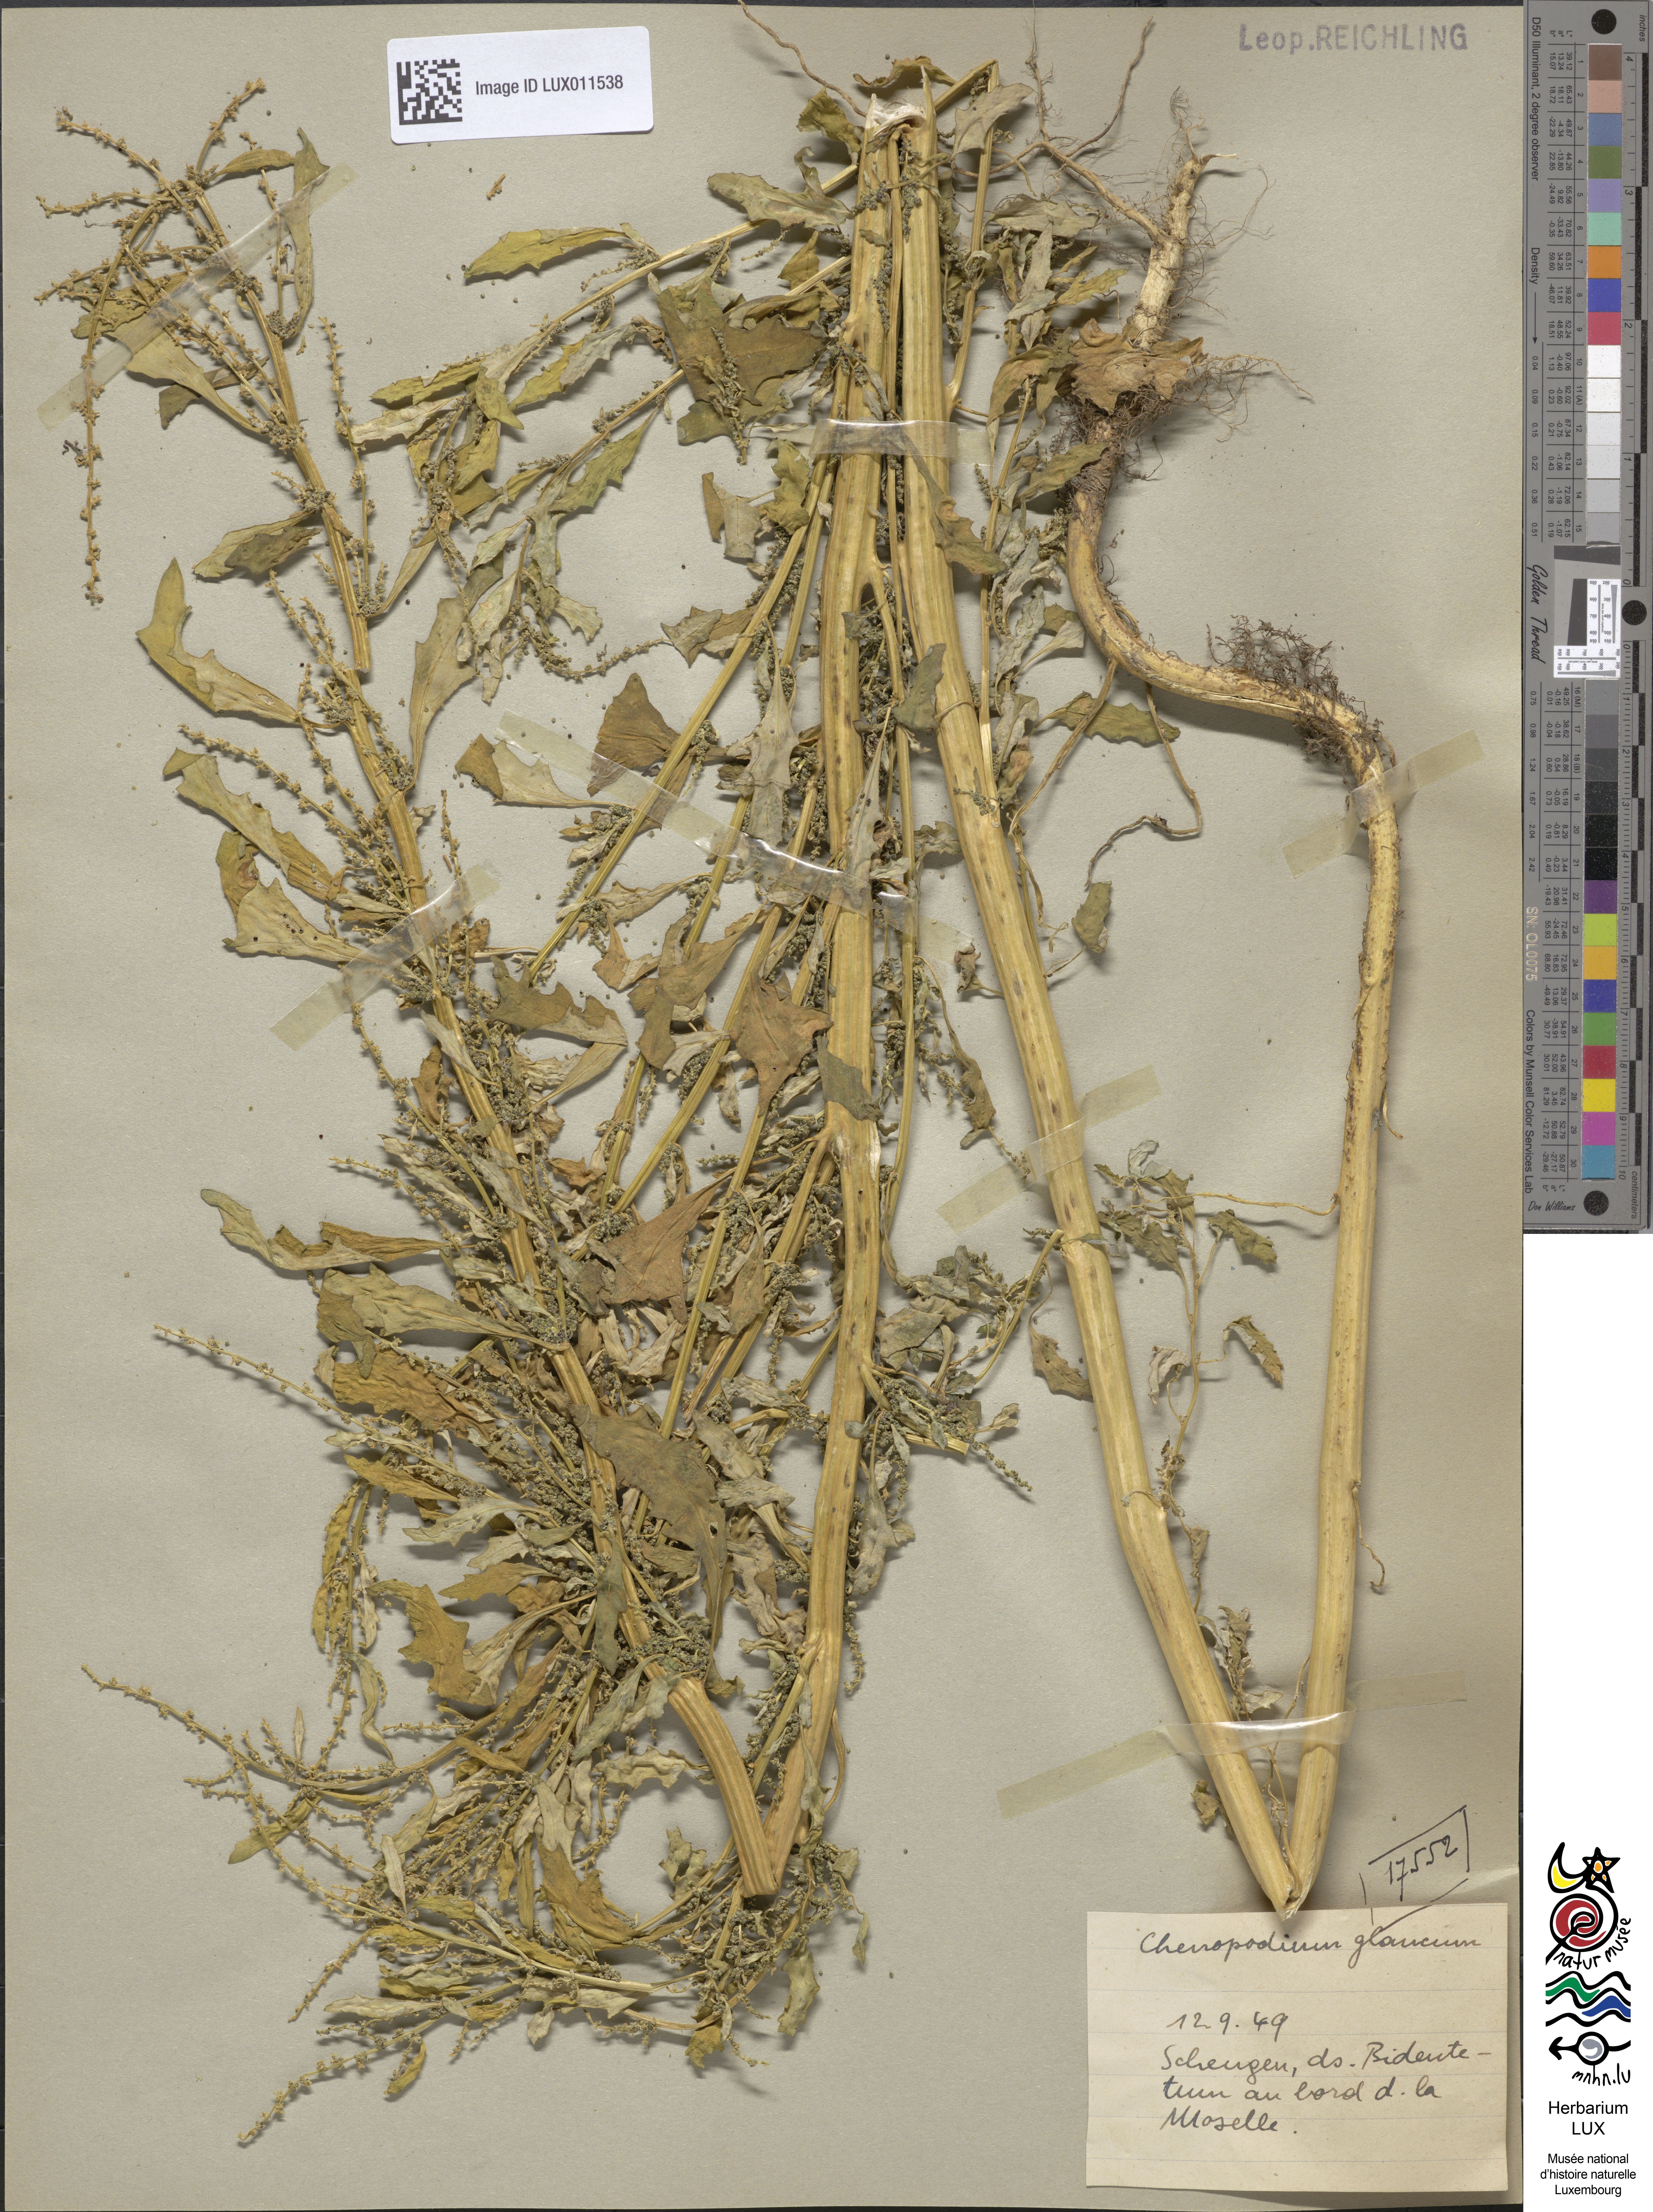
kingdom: Plantae
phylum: Tracheophyta
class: Magnoliopsida
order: Caryophyllales
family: Amaranthaceae
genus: Oxybasis
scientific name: Oxybasis glauca
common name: Glaucous goosefoot
